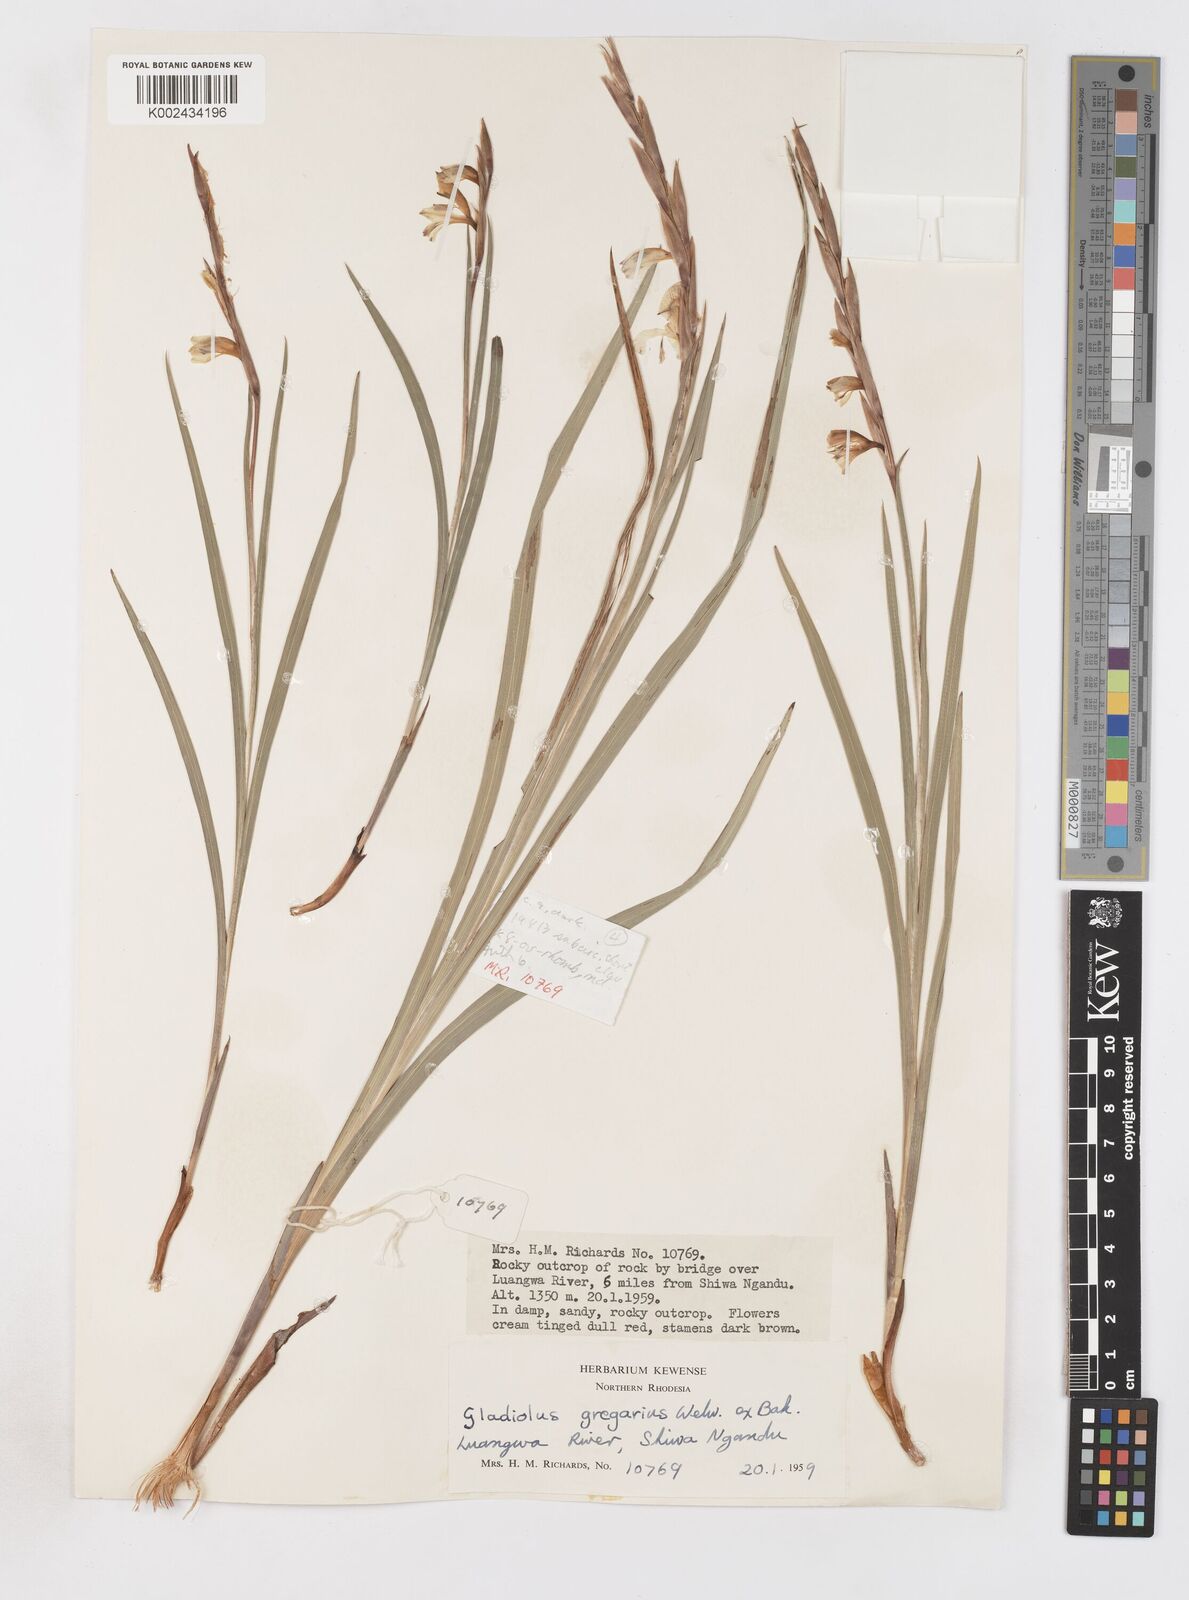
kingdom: Plantae
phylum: Tracheophyta
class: Liliopsida
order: Asparagales
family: Iridaceae
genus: Gladiolus
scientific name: Gladiolus gregarius
